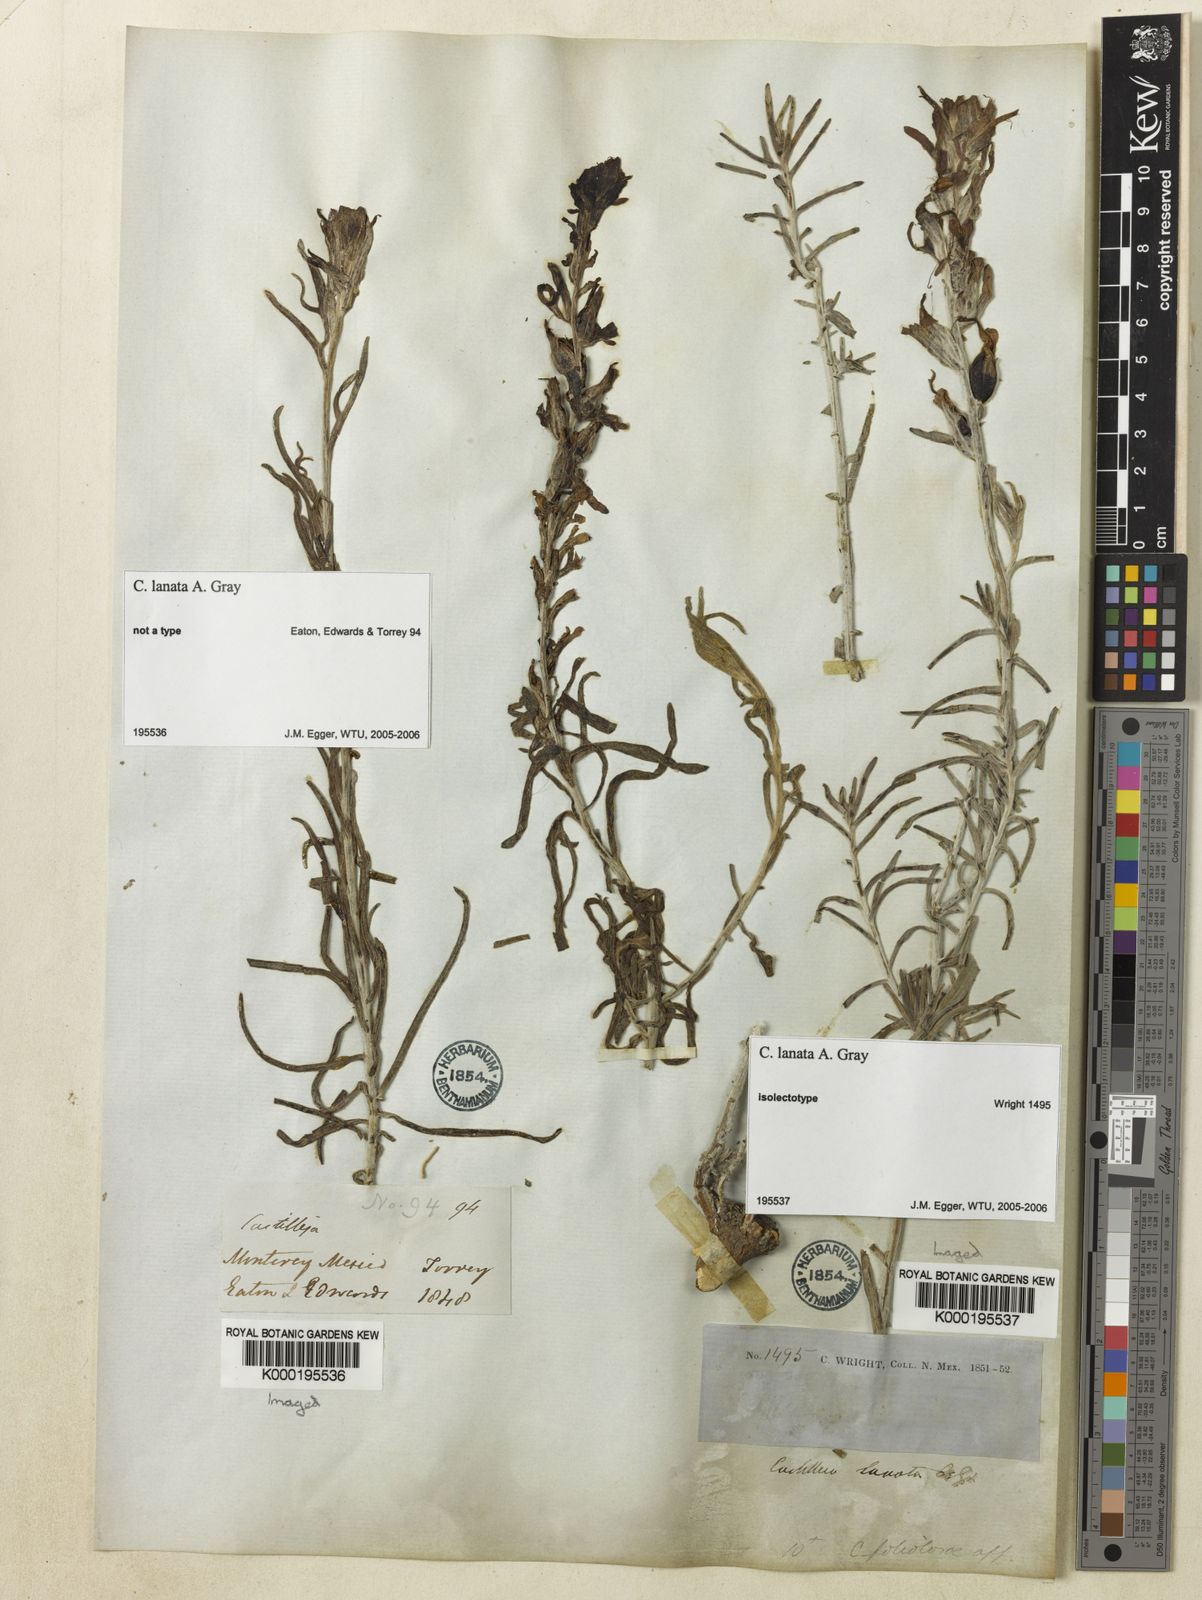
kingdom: Plantae
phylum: Tracheophyta
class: Magnoliopsida
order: Lamiales
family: Orobanchaceae
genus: Castilleja
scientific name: Castilleja lanata
